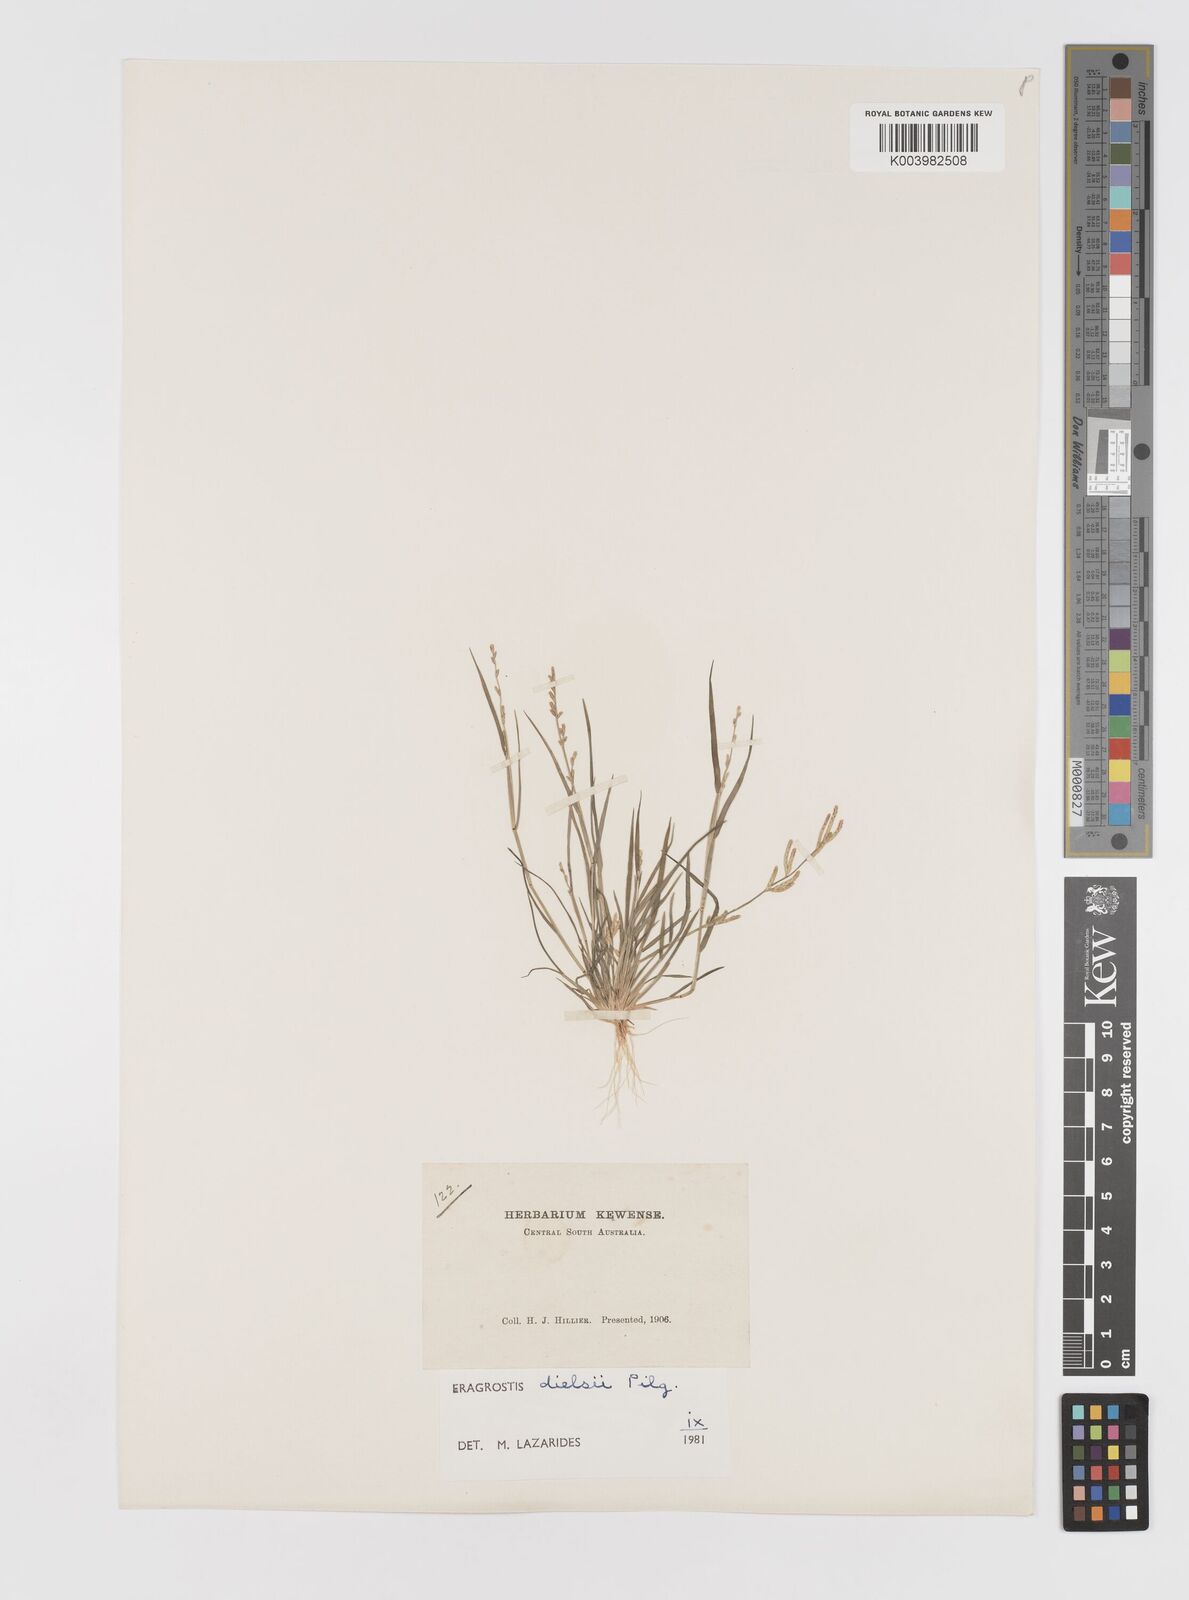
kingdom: Plantae
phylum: Tracheophyta
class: Liliopsida
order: Poales
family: Poaceae
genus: Eragrostis
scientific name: Eragrostis dielsii
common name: Lovegrass
